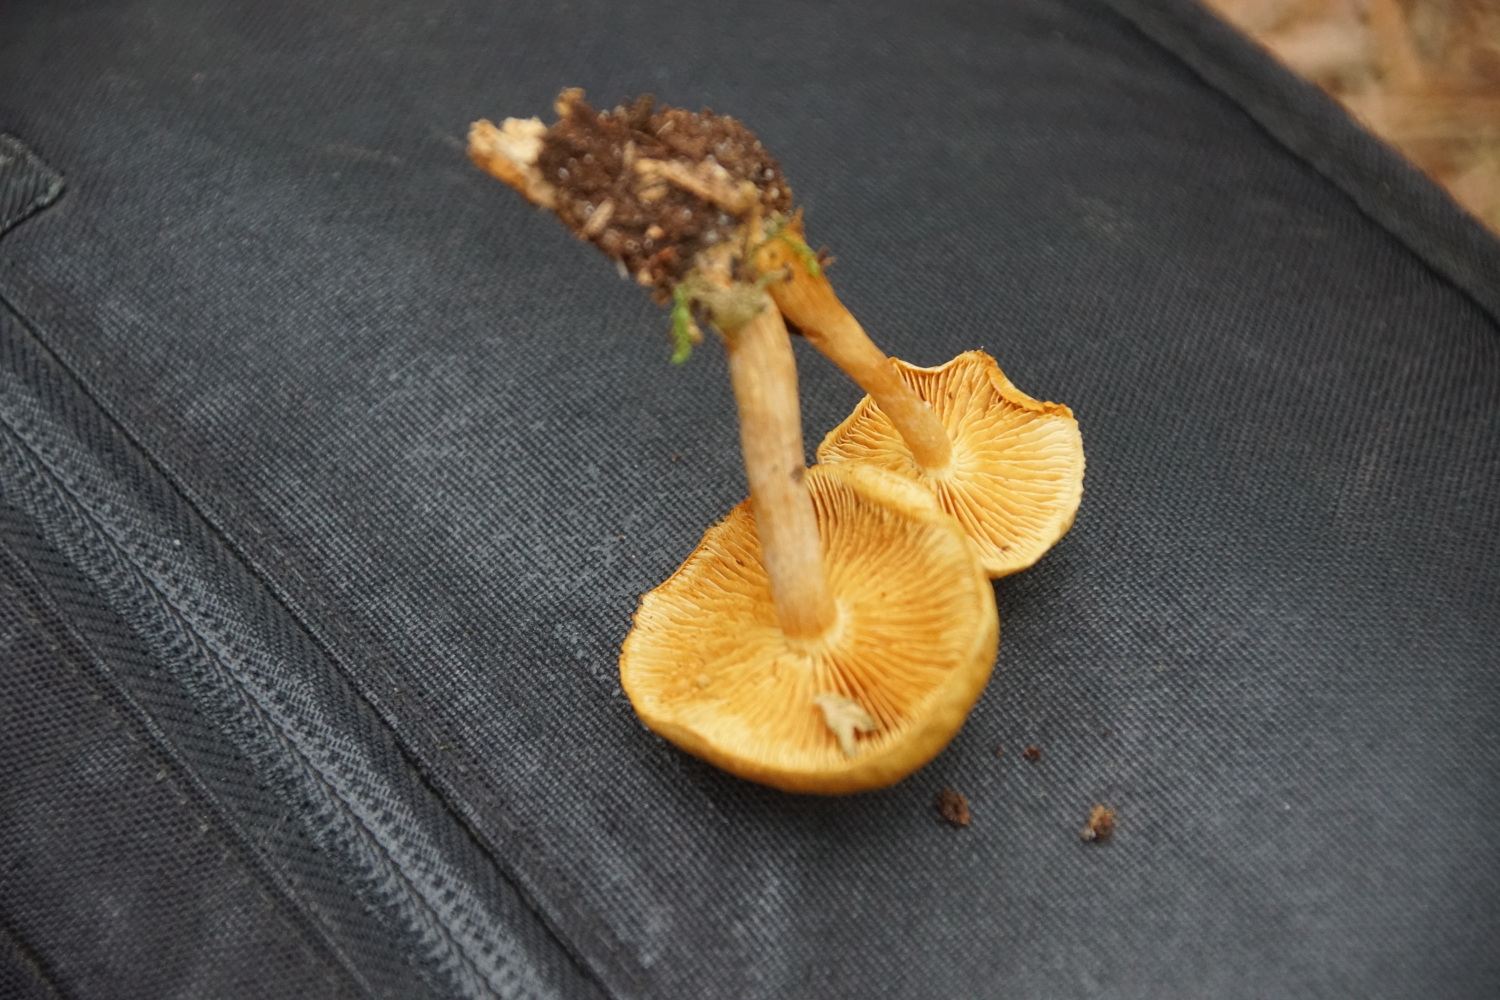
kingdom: Fungi
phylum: Basidiomycota
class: Agaricomycetes
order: Agaricales
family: Hymenogastraceae
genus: Gymnopilus
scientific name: Gymnopilus penetrans
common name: plettet flammehat
